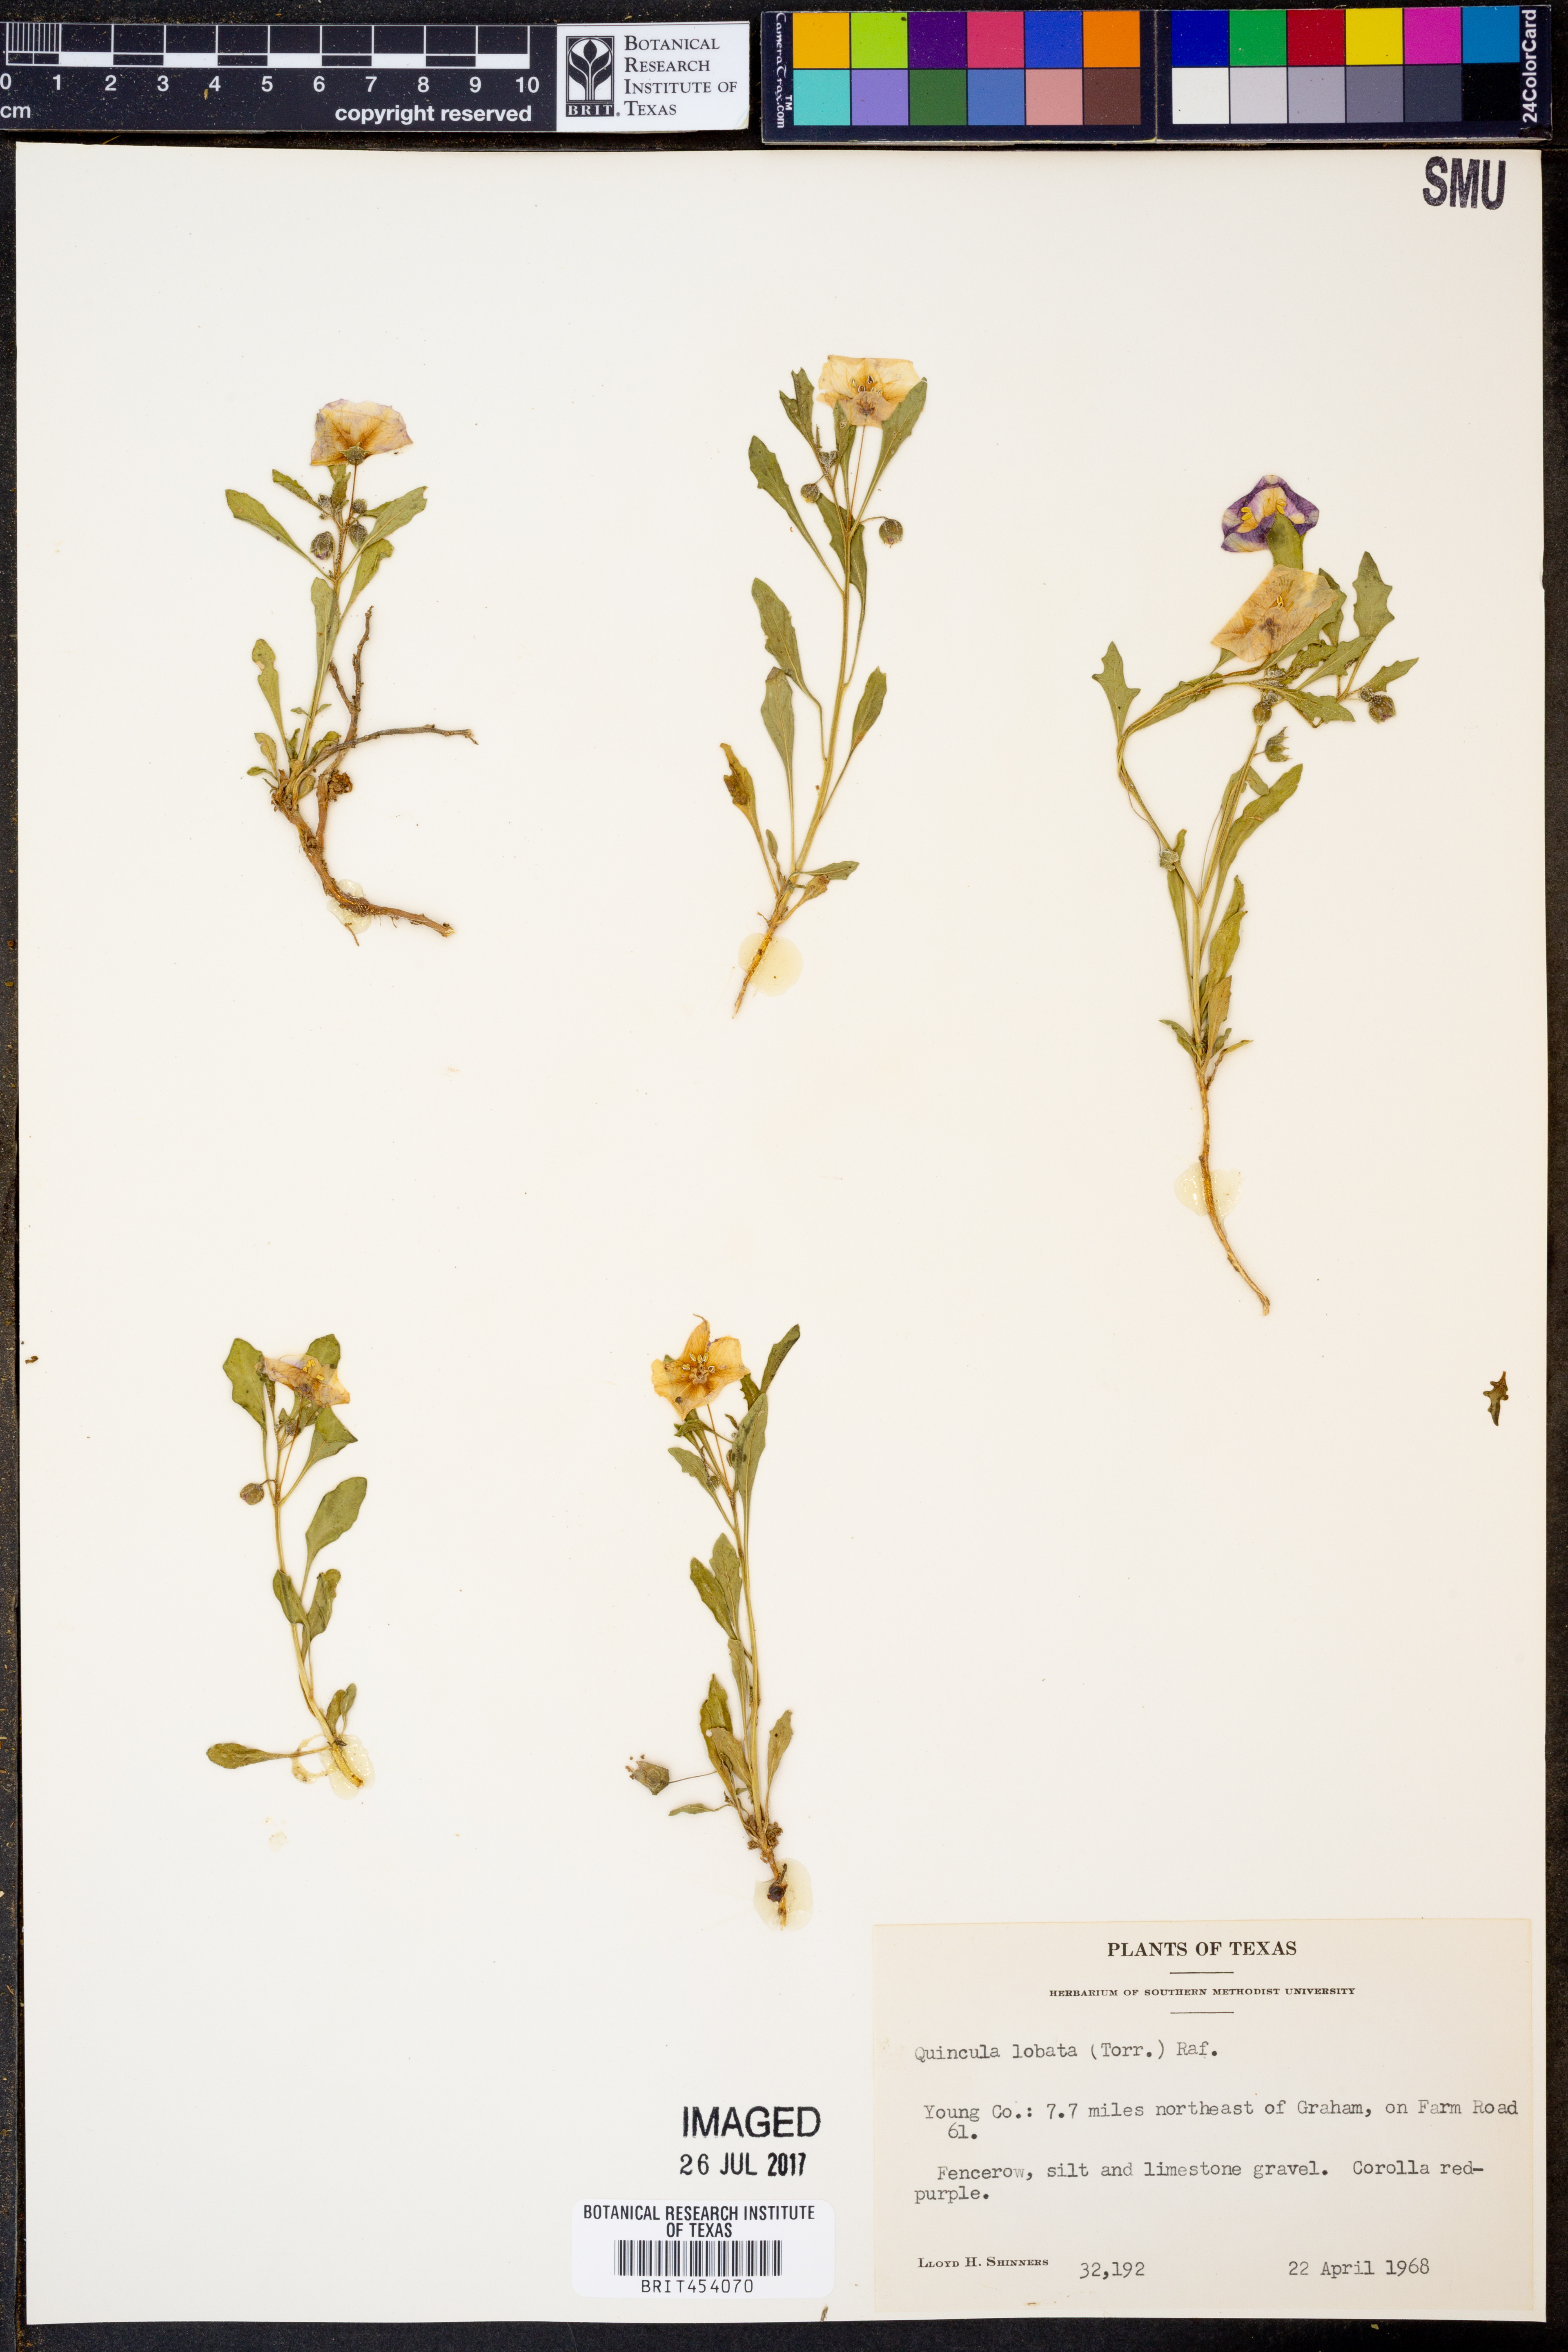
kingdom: Plantae
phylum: Tracheophyta
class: Magnoliopsida
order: Solanales
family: Solanaceae
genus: Quincula
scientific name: Quincula lobata
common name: Purple-ground-cherry
